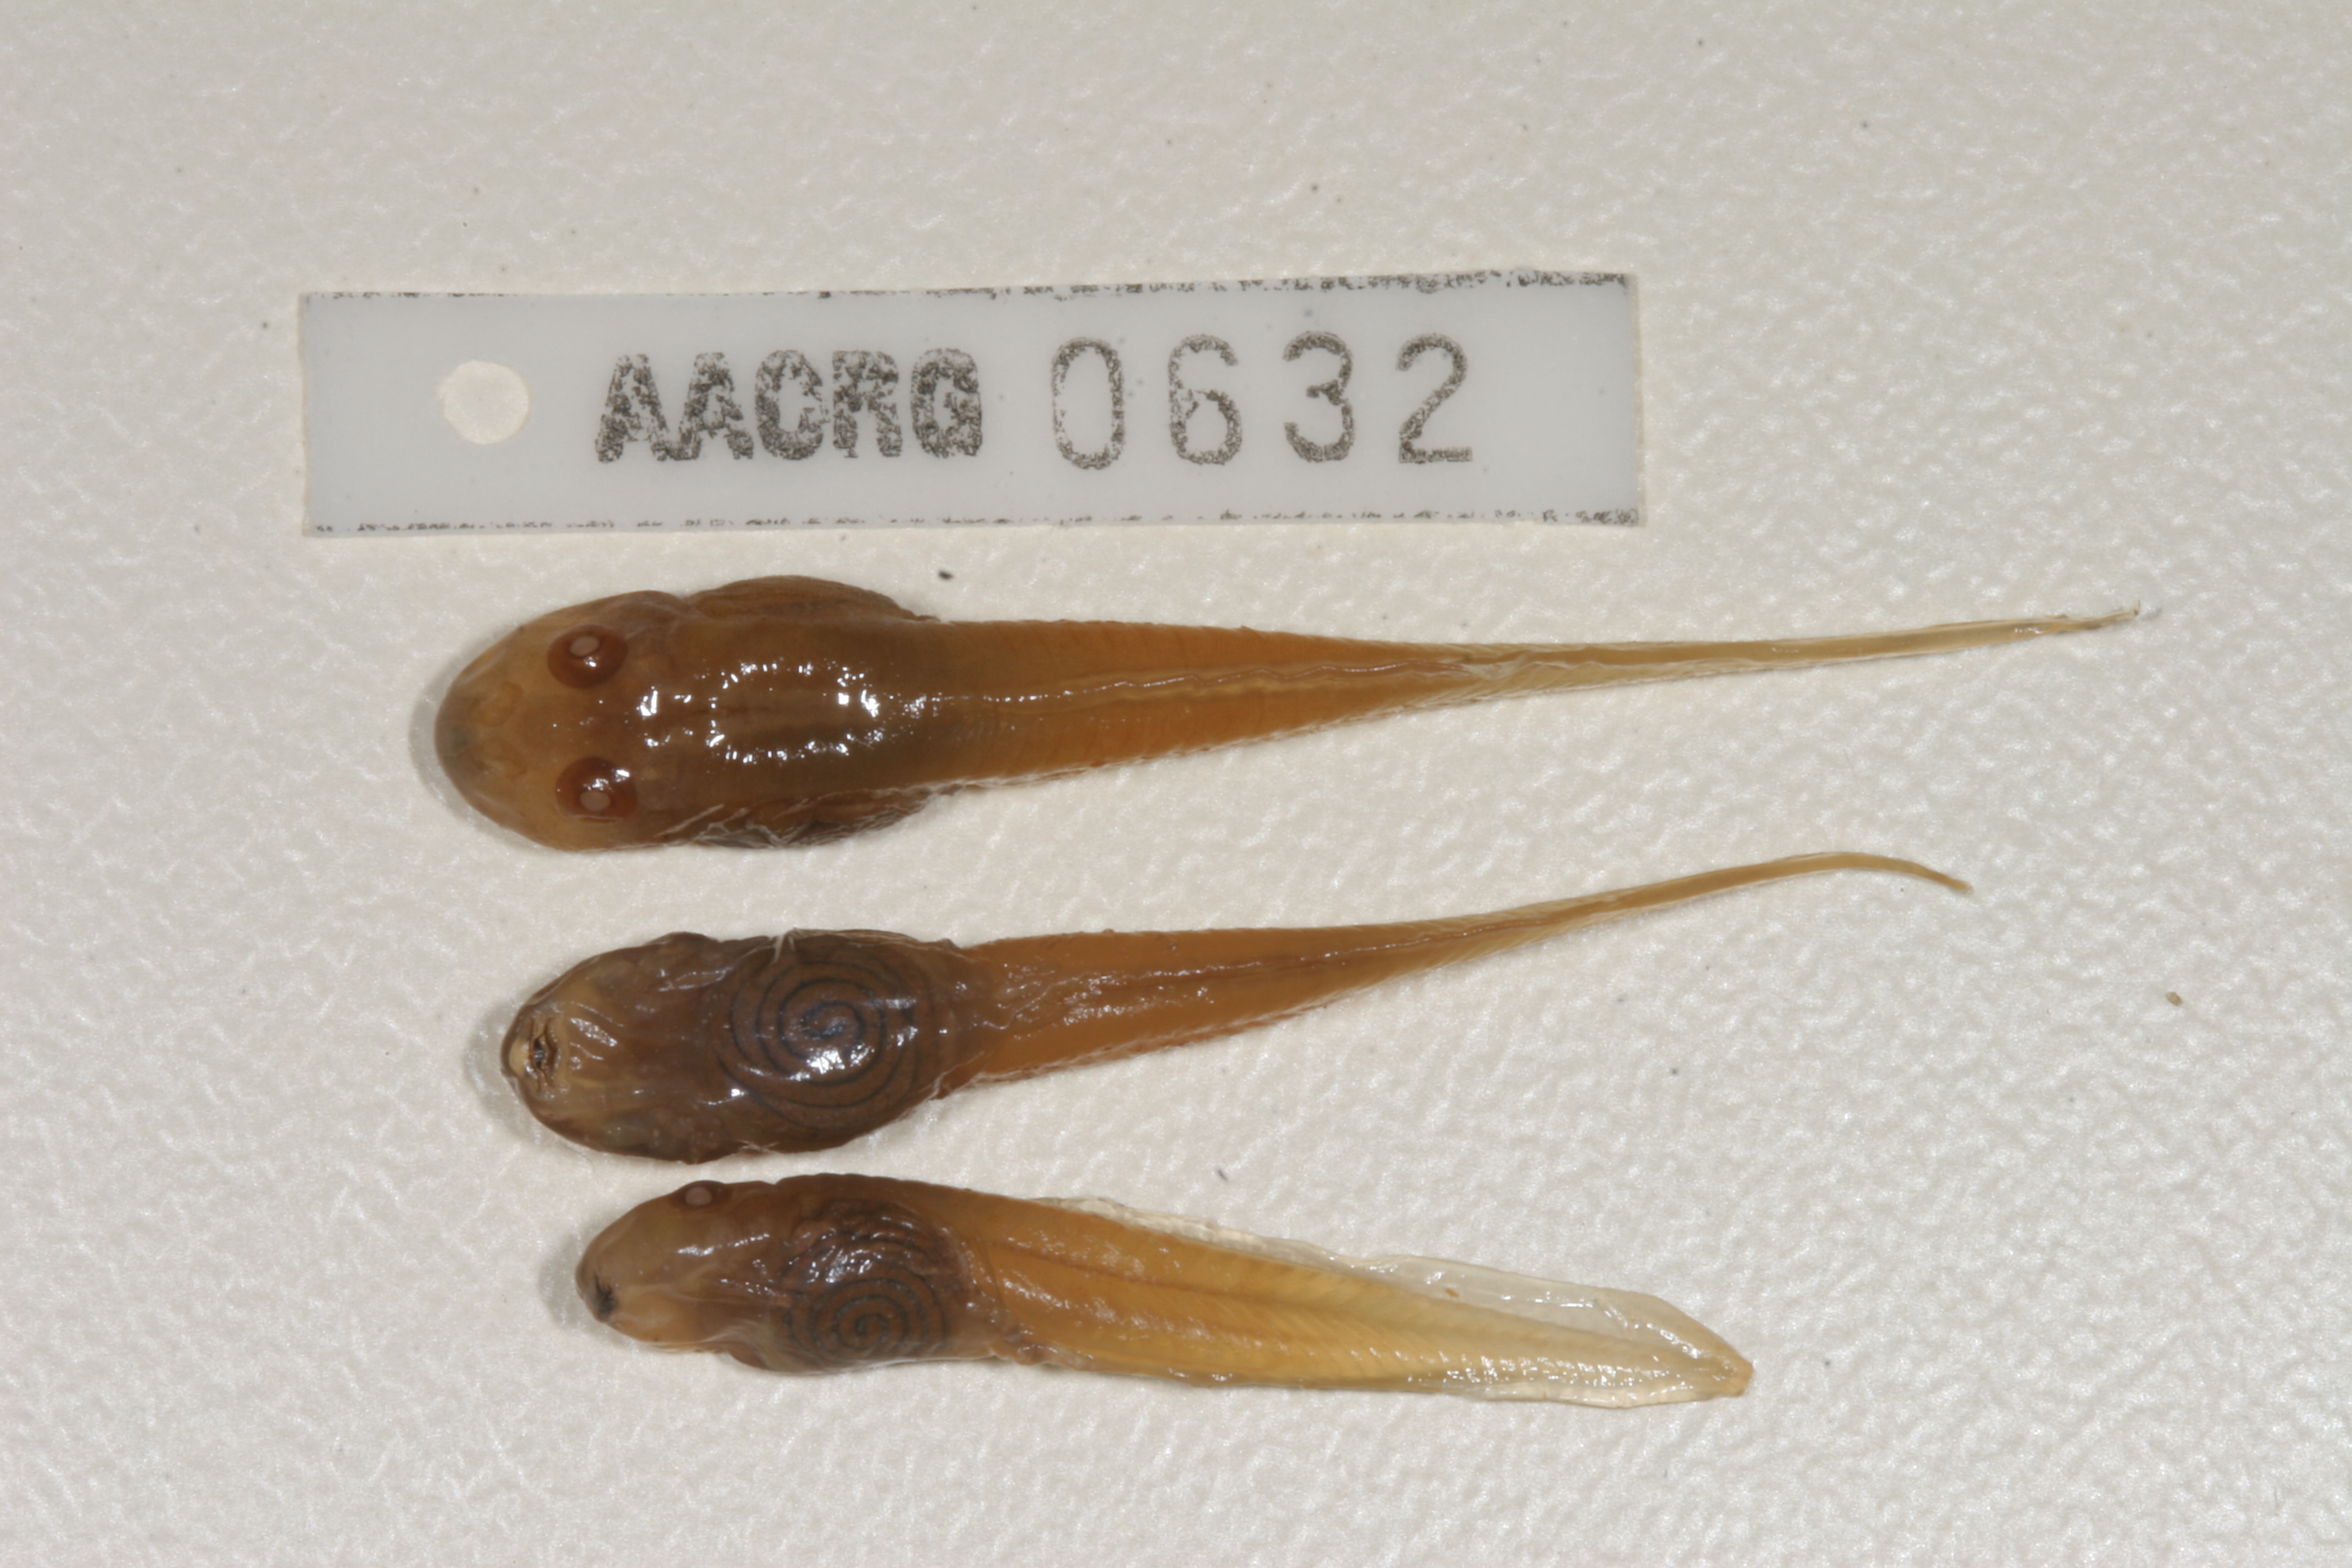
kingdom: Animalia
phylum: Chordata
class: Amphibia
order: Anura
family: Pyxicephalidae
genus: Amietia
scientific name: Amietia angolensis
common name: Dusky-throated frog
